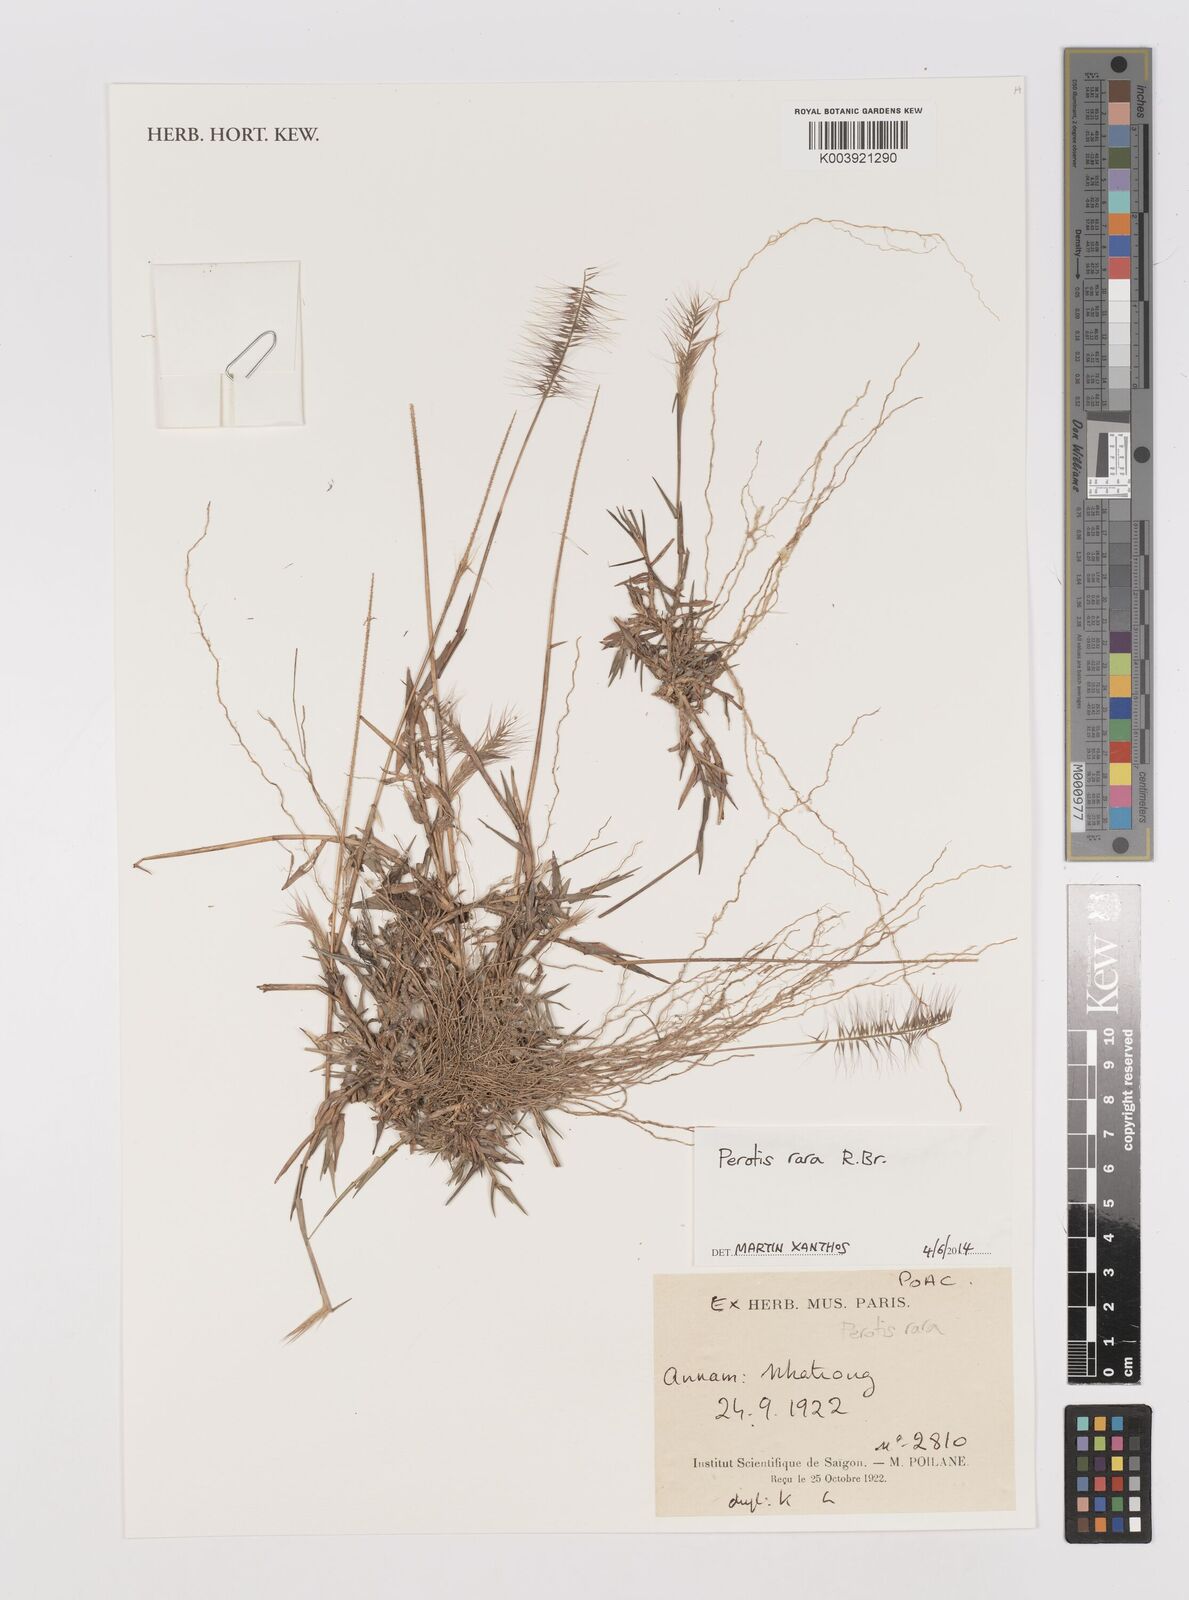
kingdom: Plantae
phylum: Tracheophyta
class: Liliopsida
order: Poales
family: Poaceae
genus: Perotis
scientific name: Perotis rara
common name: Comet grass
